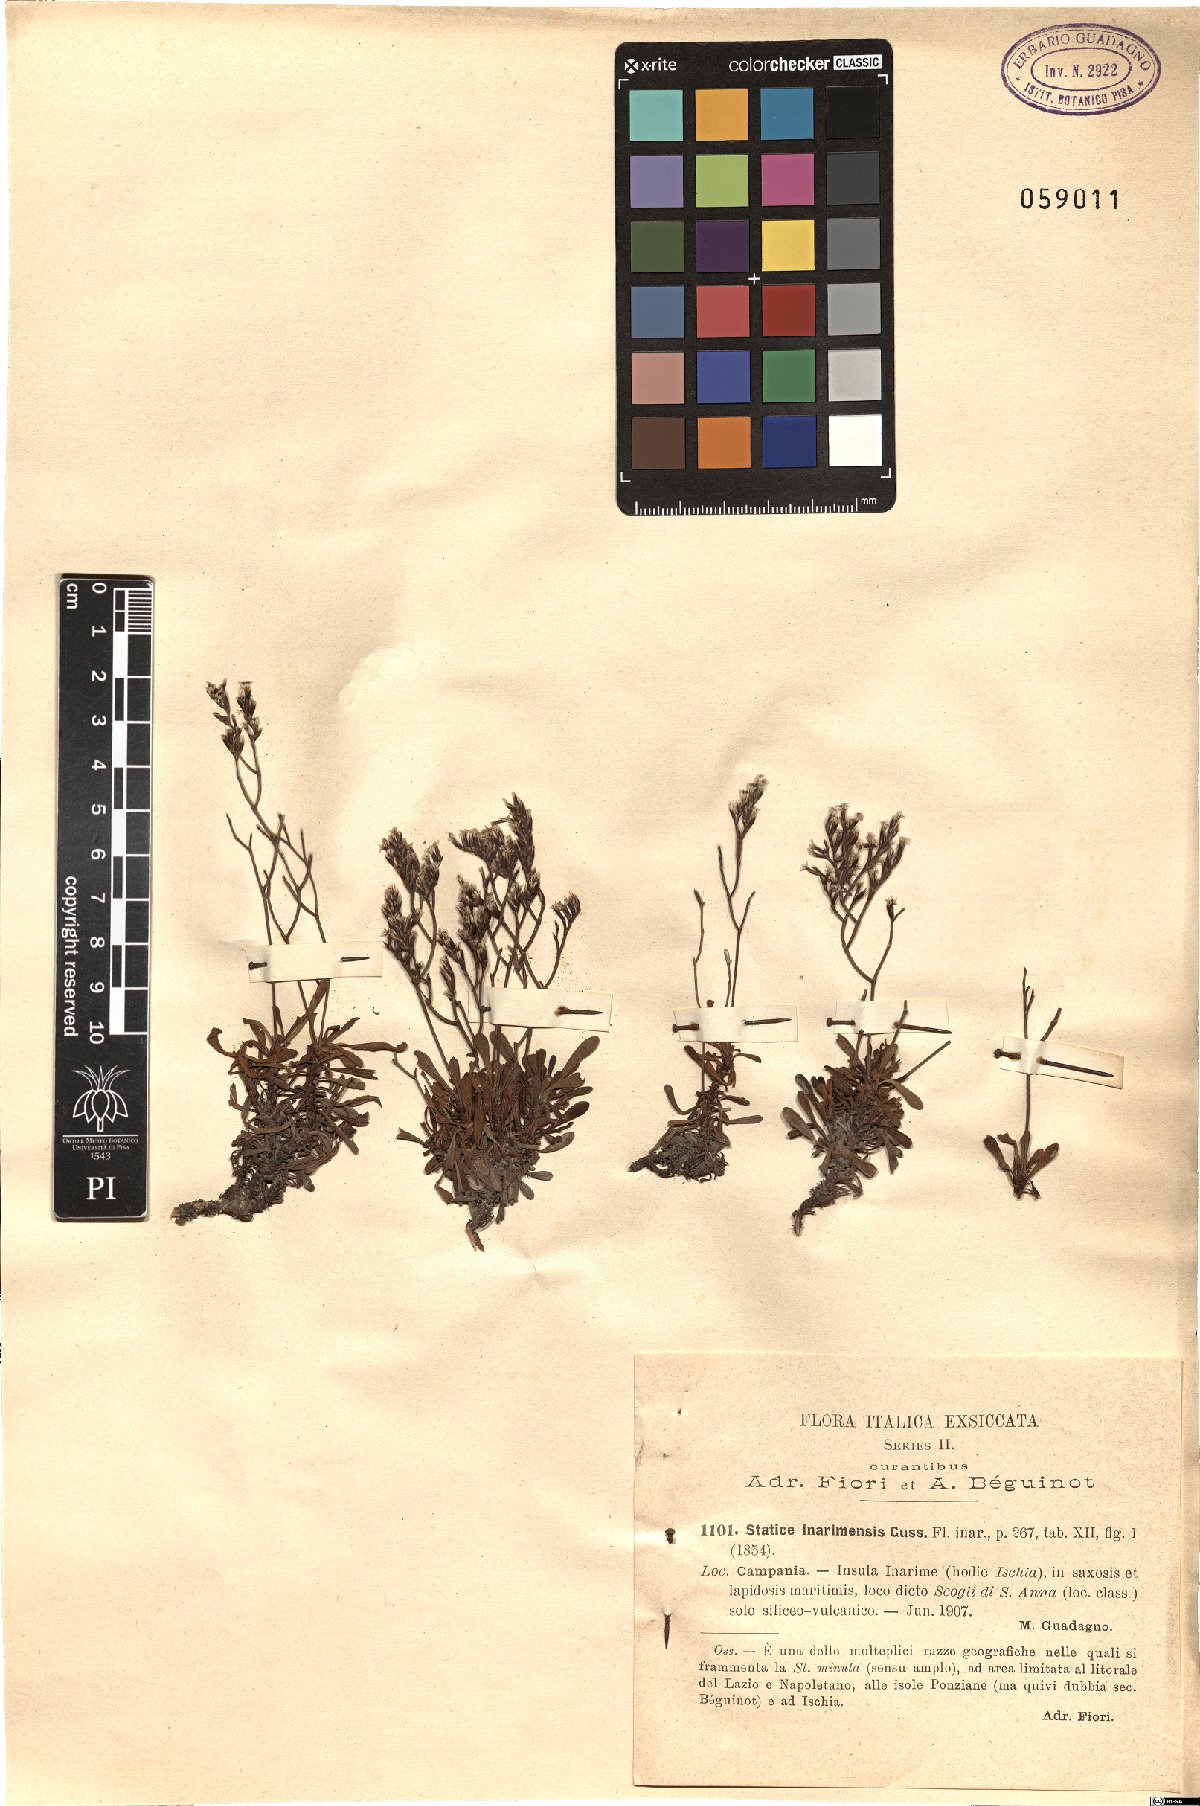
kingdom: Plantae
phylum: Tracheophyta
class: Magnoliopsida
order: Caryophyllales
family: Plumbaginaceae
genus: Limonium
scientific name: Limonium inarimense
